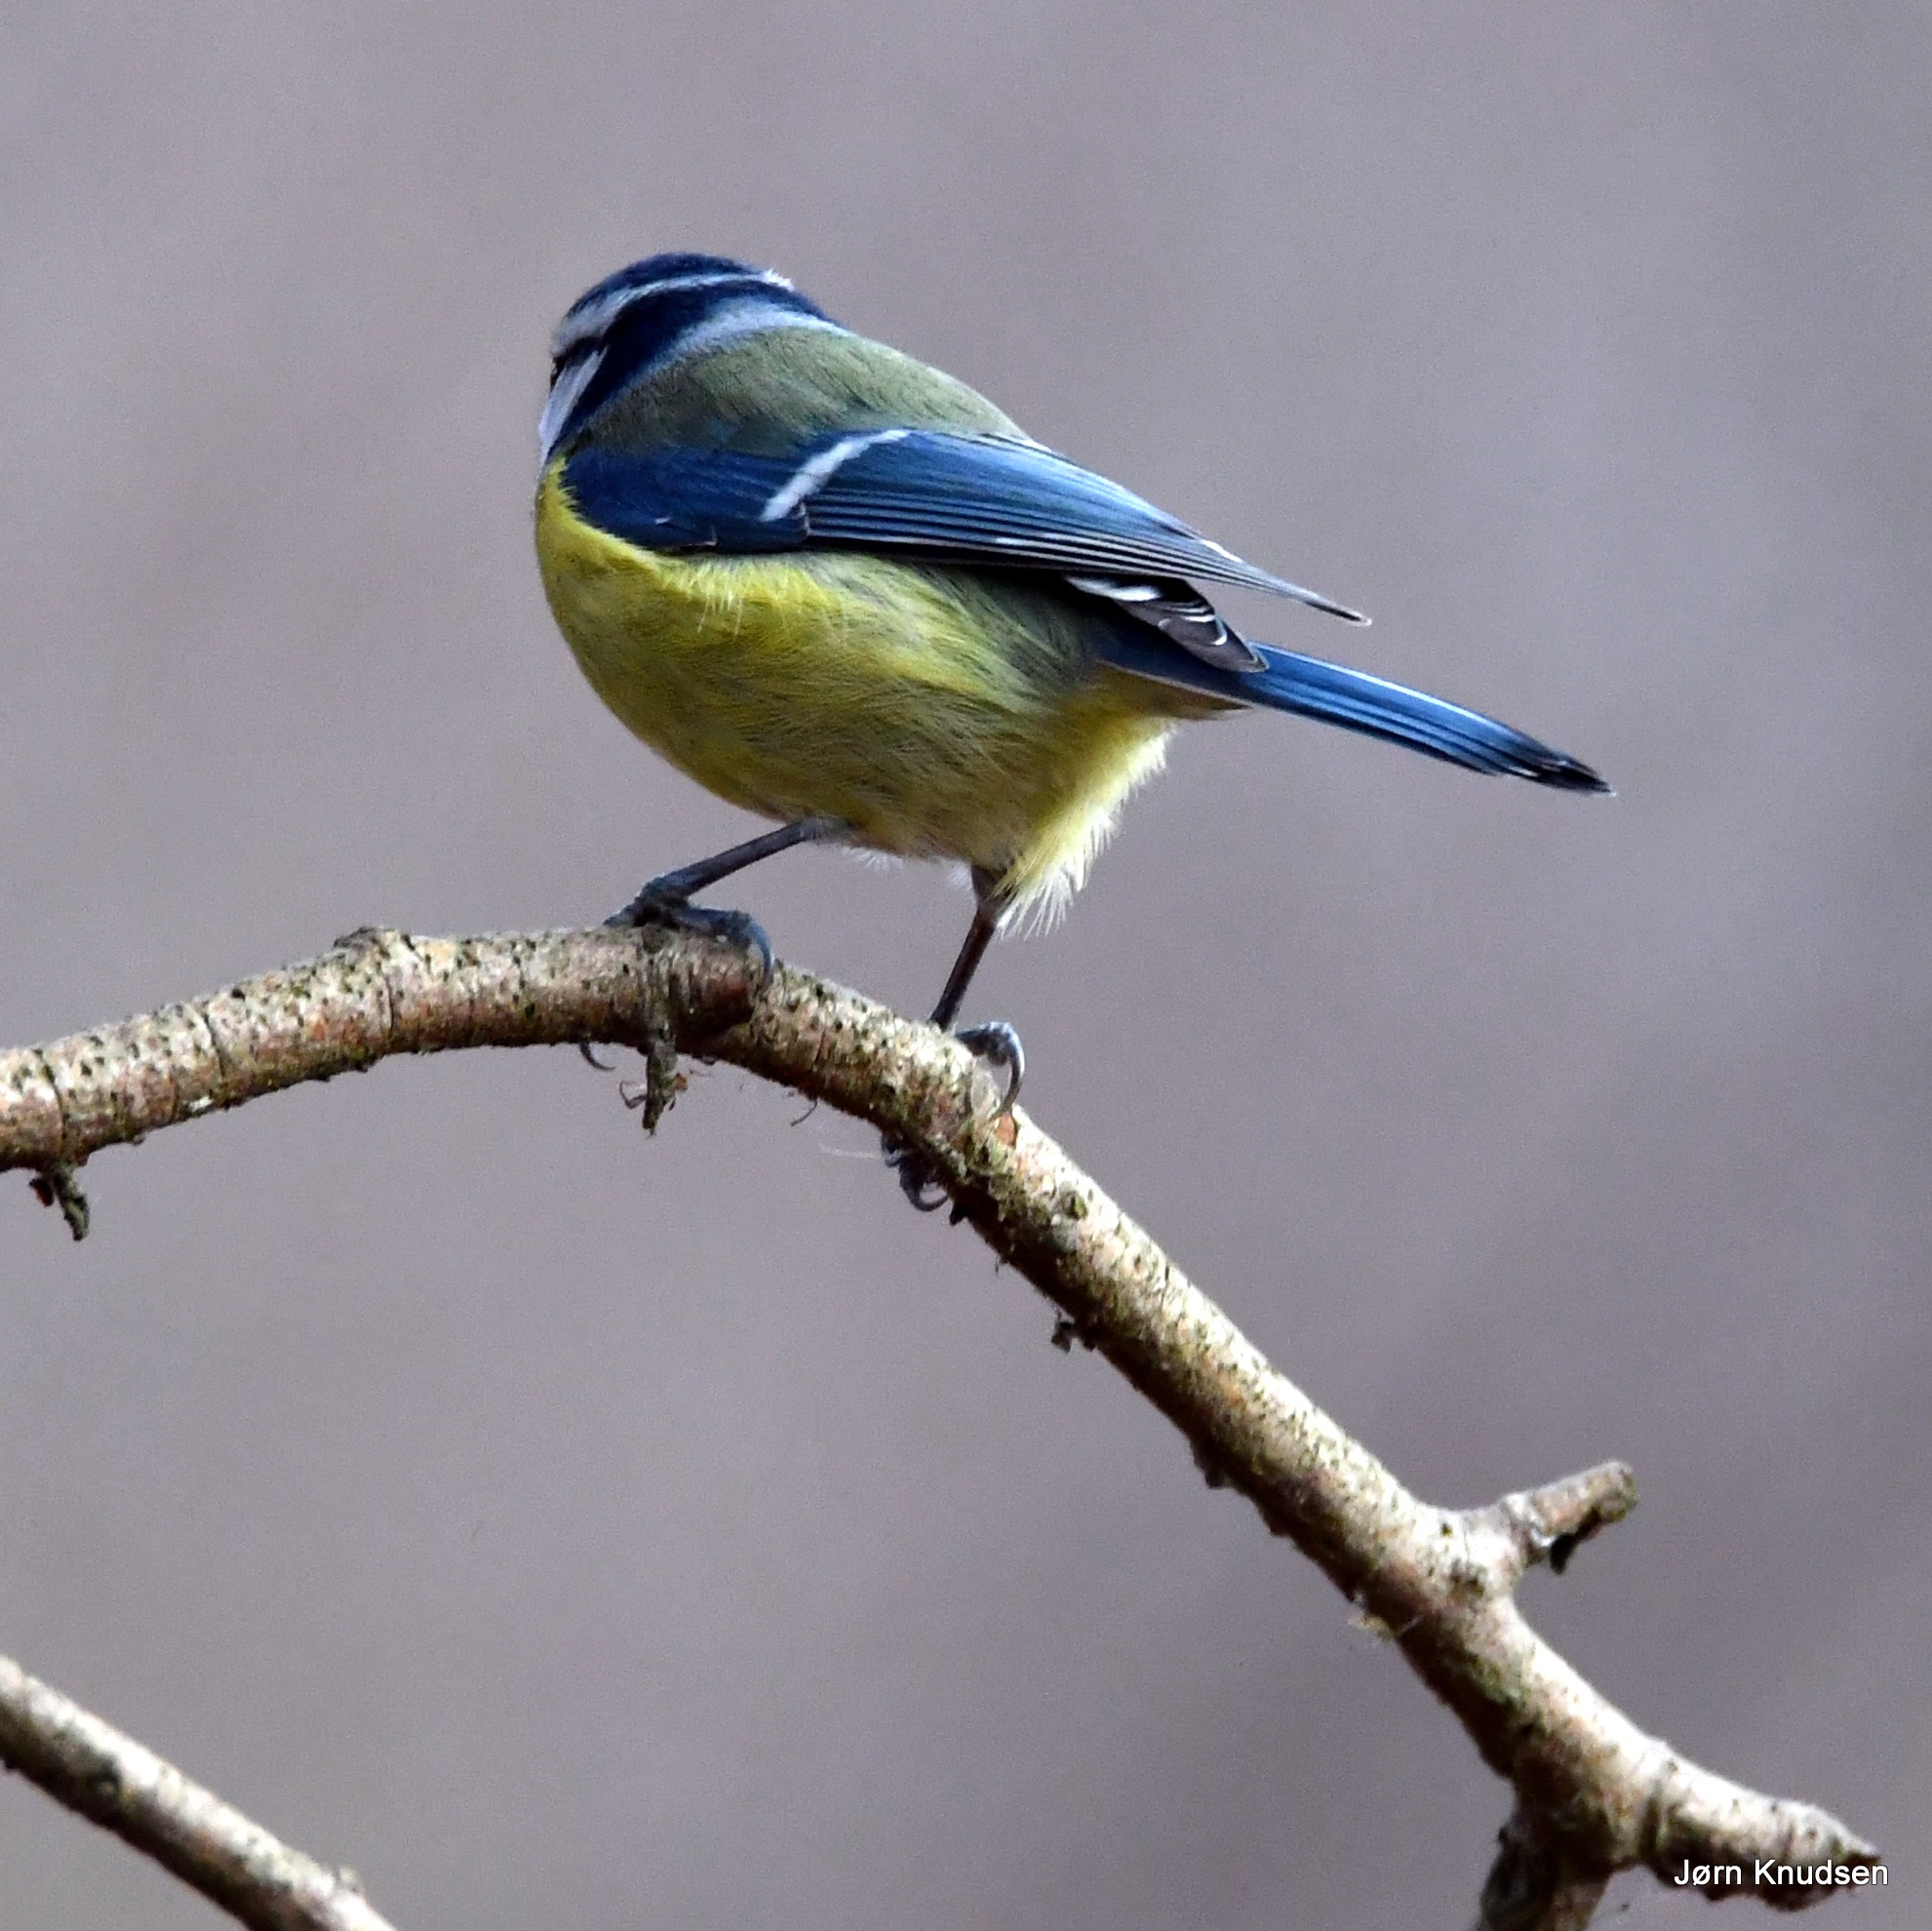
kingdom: Animalia
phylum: Chordata
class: Aves
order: Passeriformes
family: Paridae
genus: Cyanistes
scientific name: Cyanistes caeruleus
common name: Blåmejse
